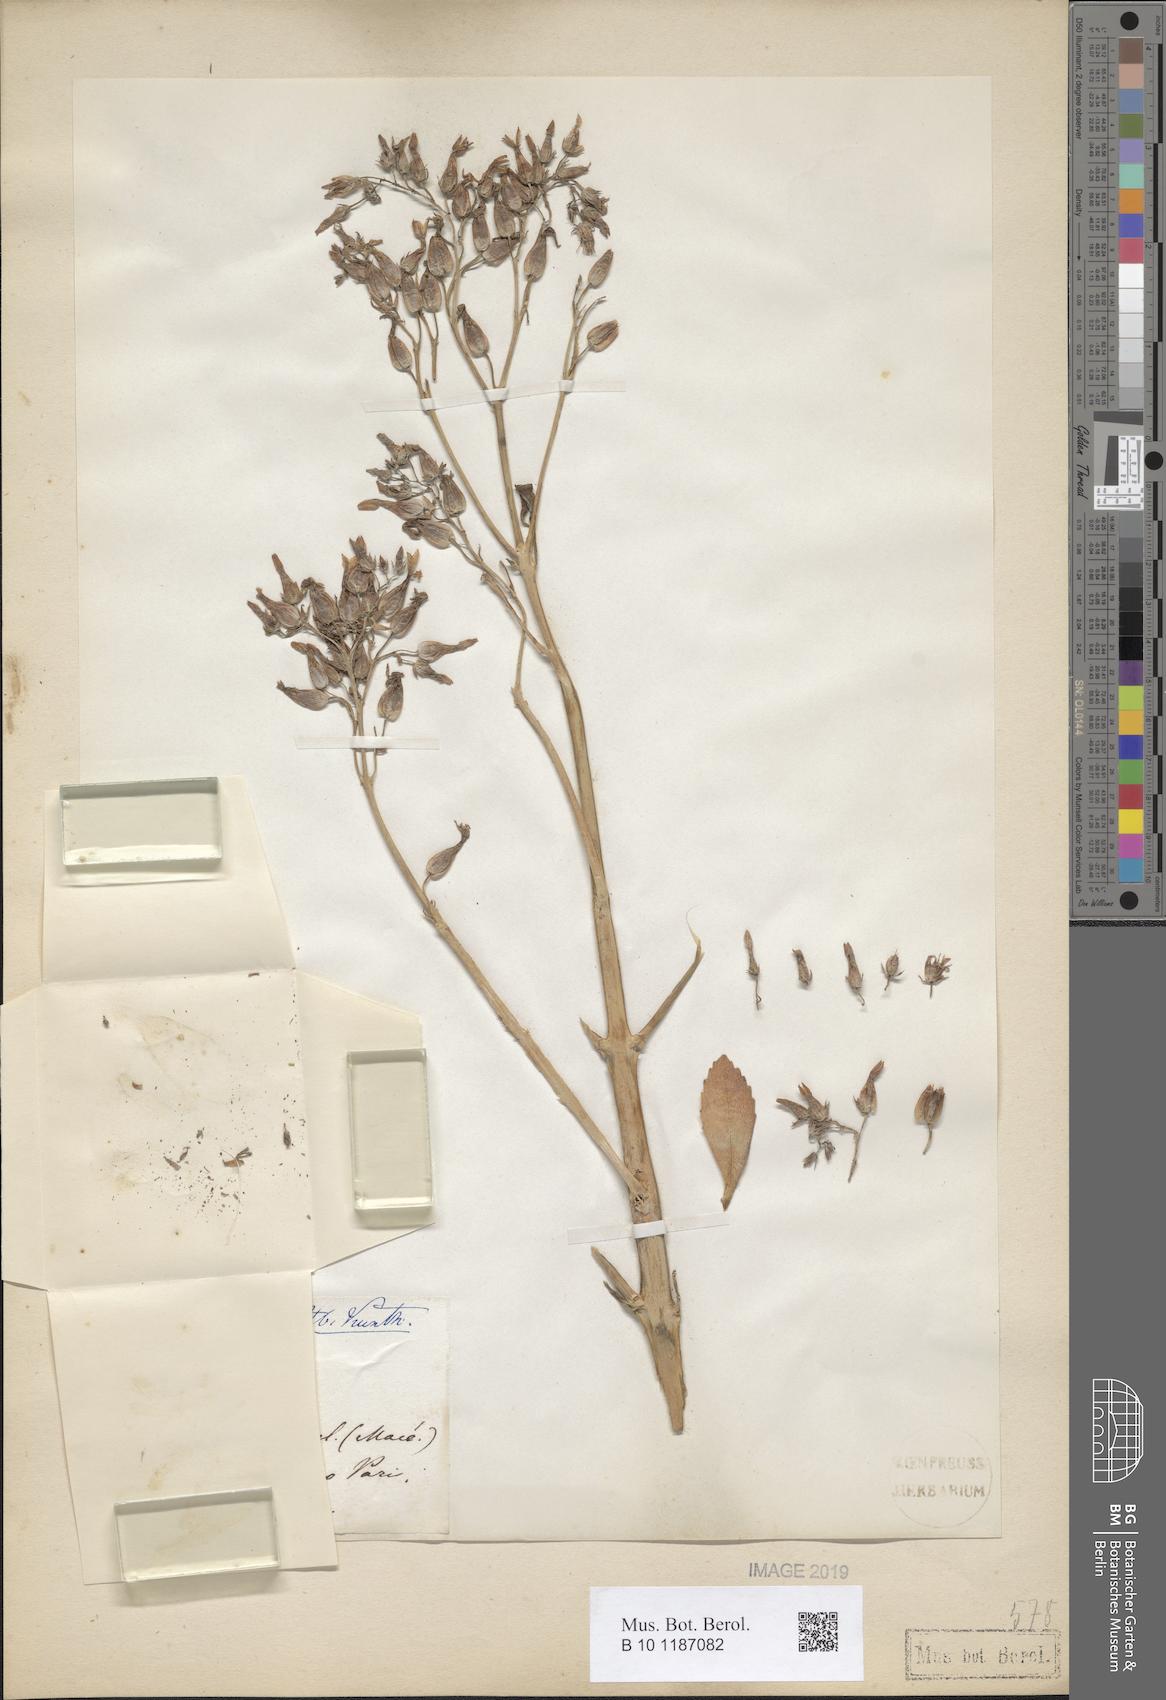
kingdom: Plantae
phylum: Tracheophyta
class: Magnoliopsida
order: Saxifragales
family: Crassulaceae
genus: Kalanchoe
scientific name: Kalanchoe
